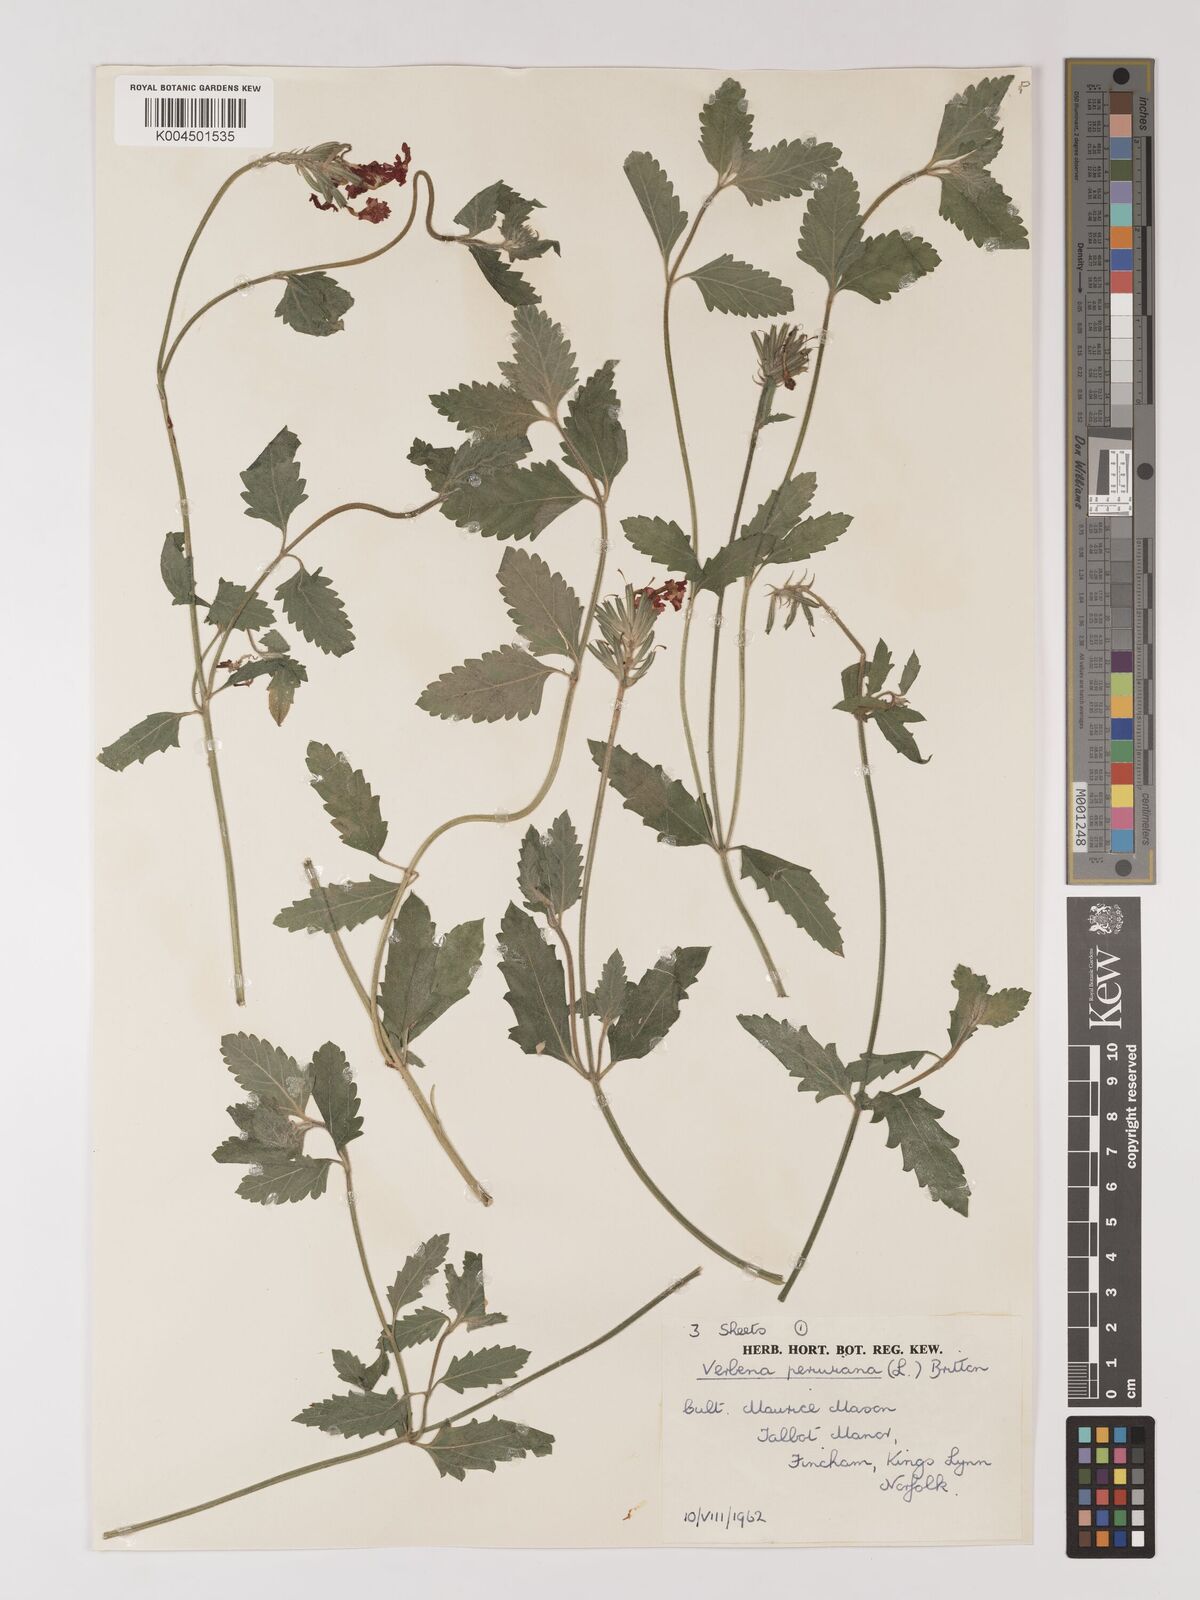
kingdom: Plantae
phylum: Tracheophyta
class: Magnoliopsida
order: Lamiales
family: Verbenaceae
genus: Verbena
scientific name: Verbena peruviana
